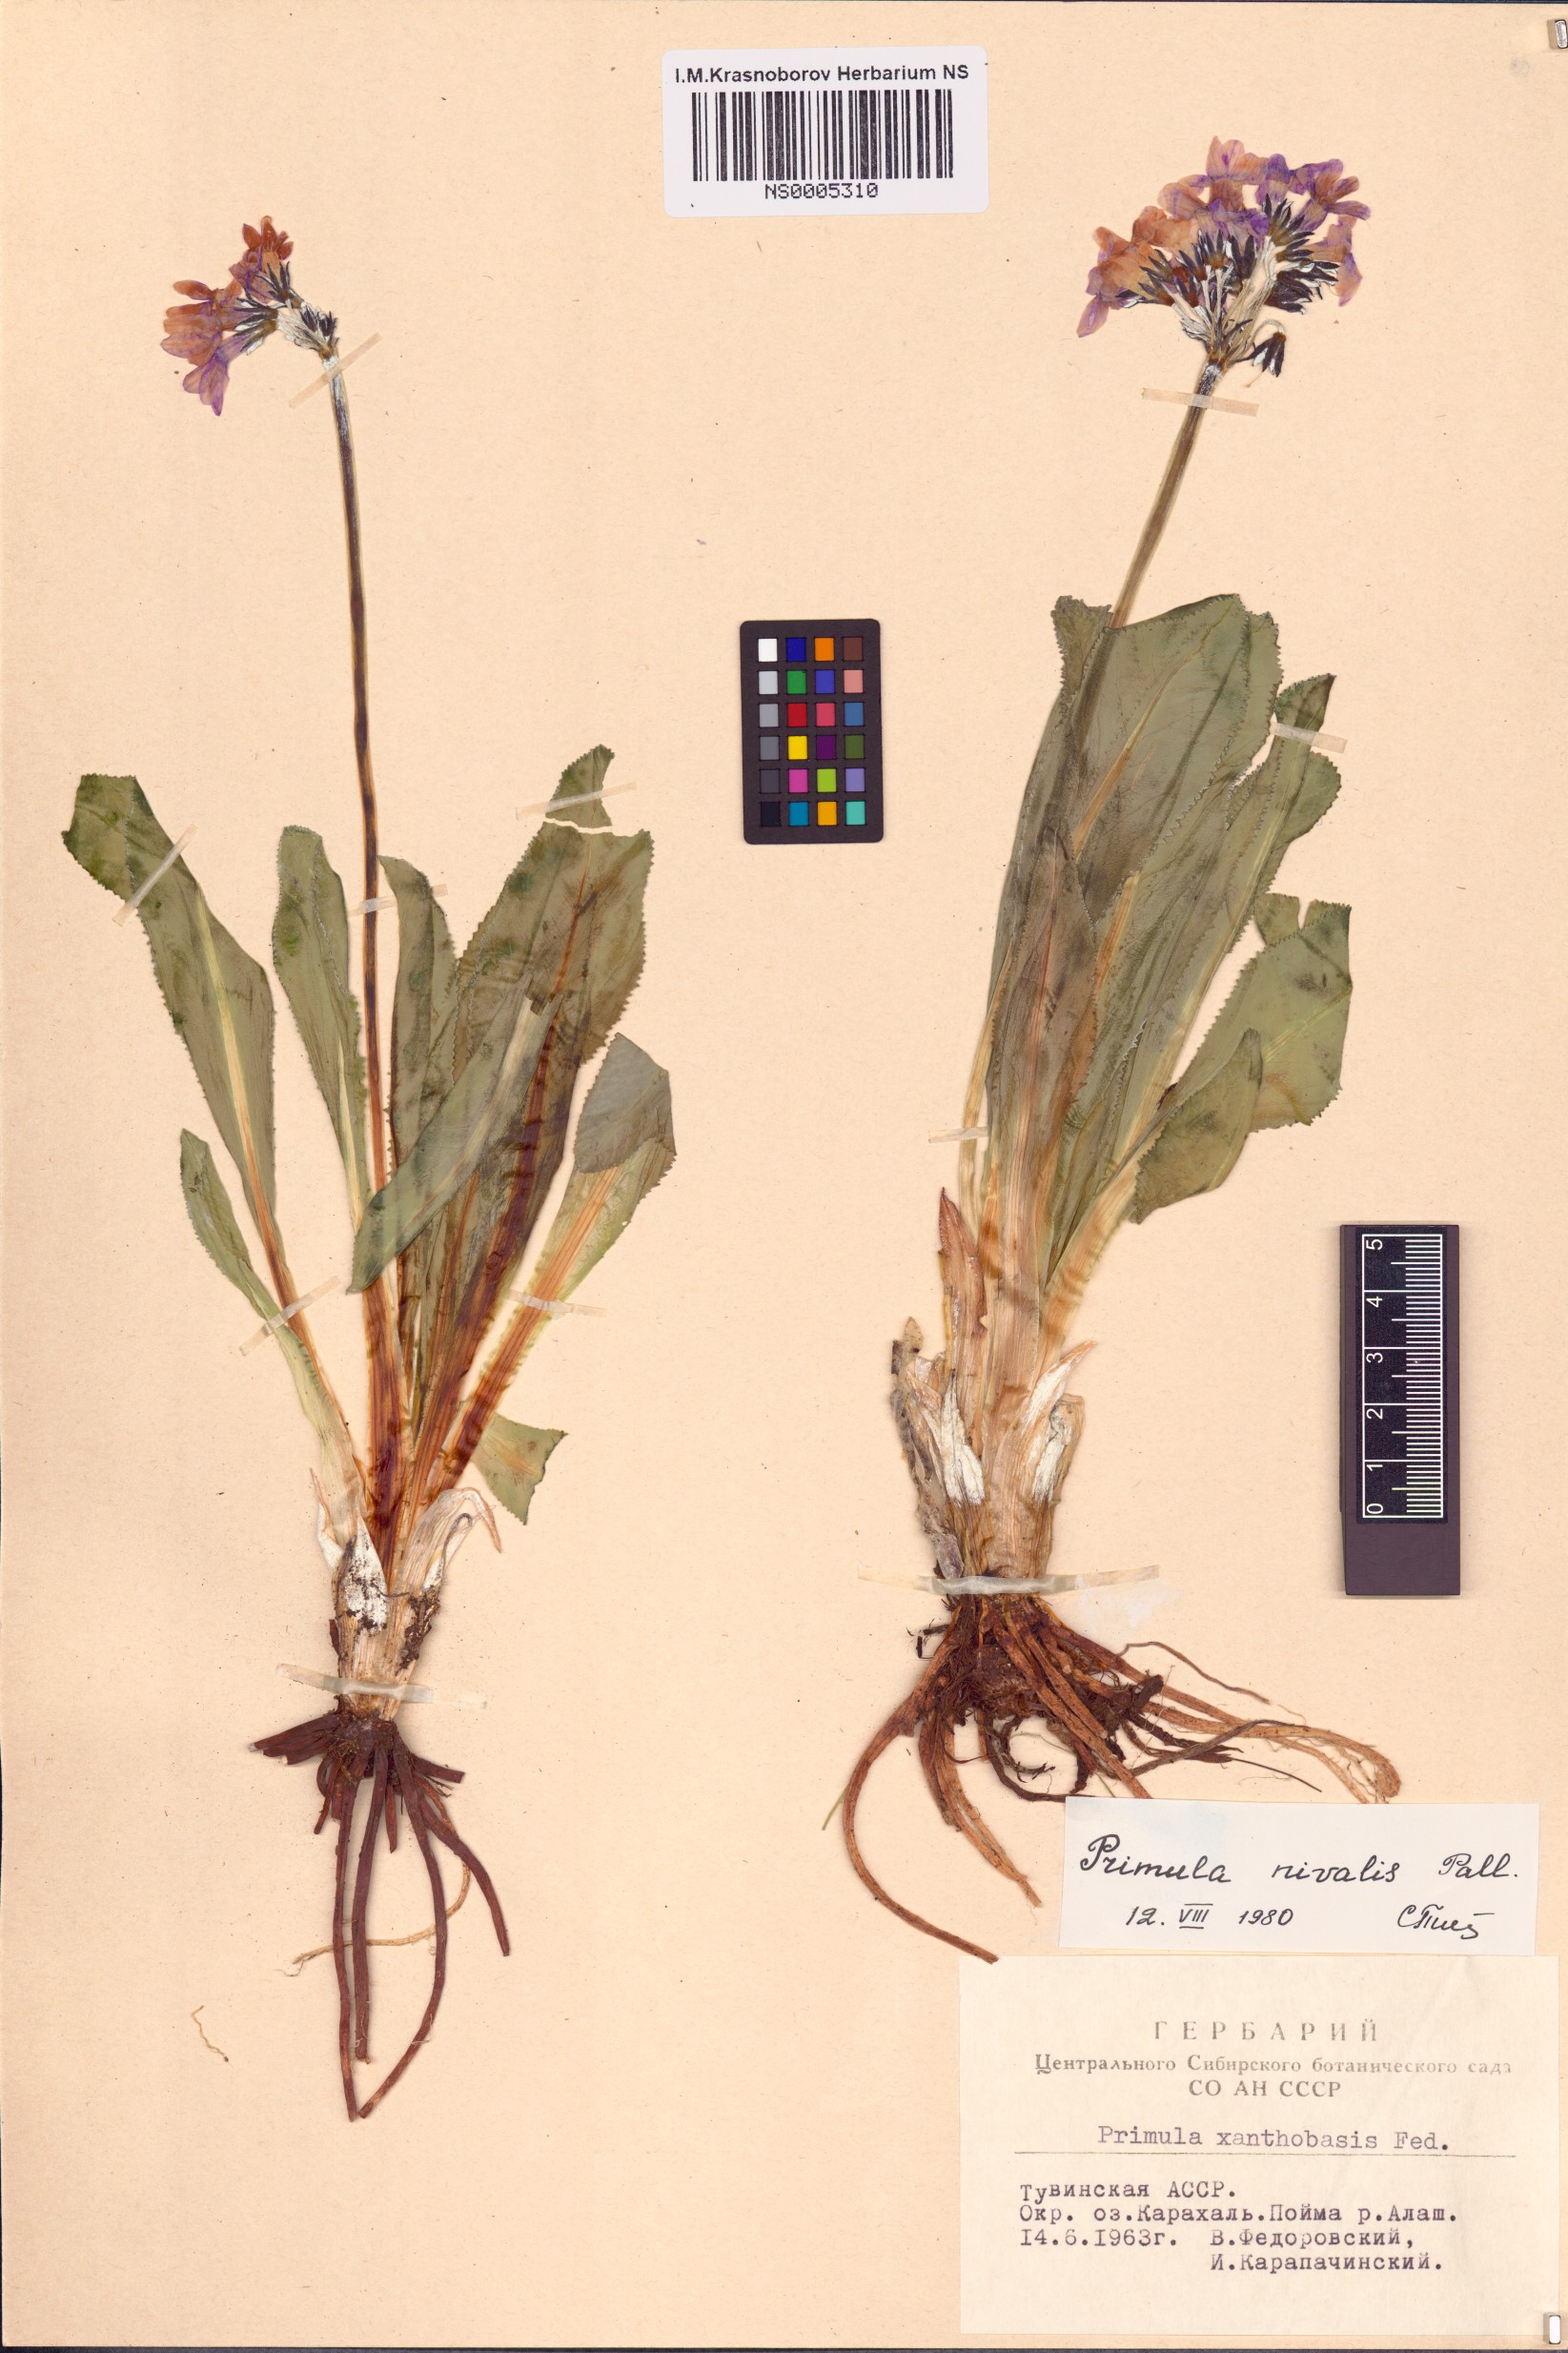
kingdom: Plantae
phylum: Tracheophyta
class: Magnoliopsida
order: Ericales
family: Primulaceae
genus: Primula
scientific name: Primula nivalis
